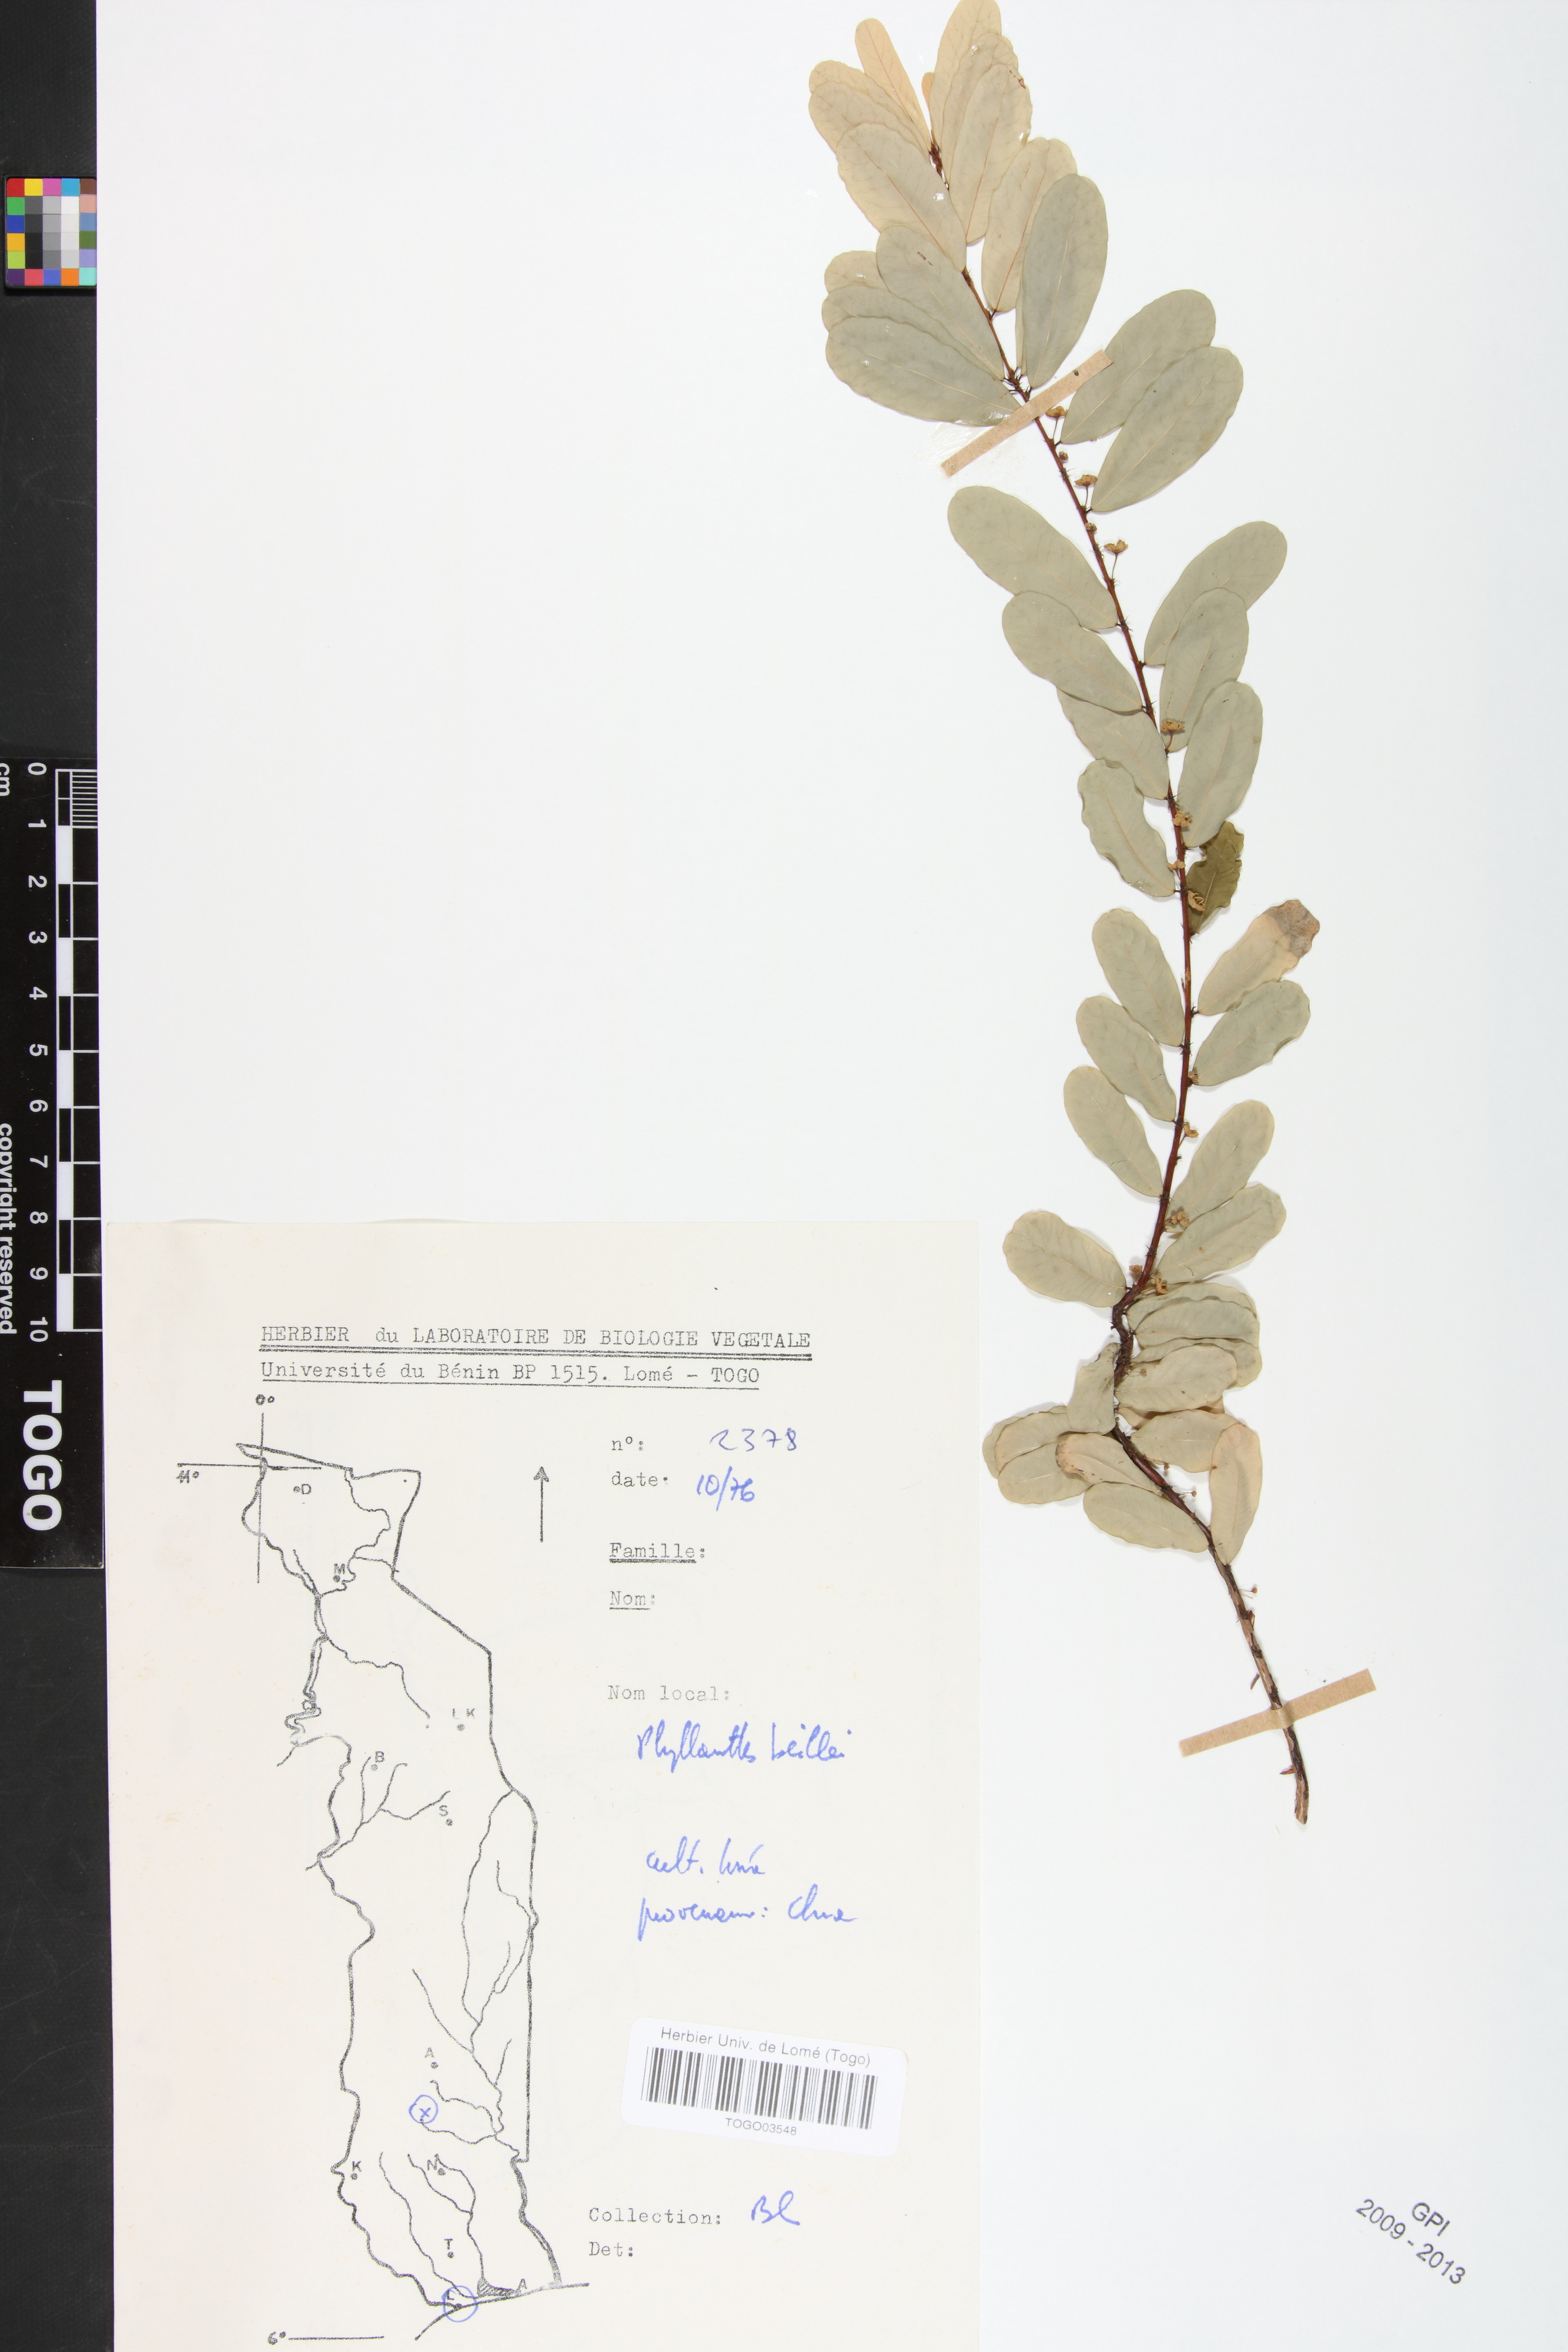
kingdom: Plantae
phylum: Tracheophyta
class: Magnoliopsida
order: Malpighiales
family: Phyllanthaceae
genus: Phyllanthus
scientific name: Phyllanthus welwitschianus
